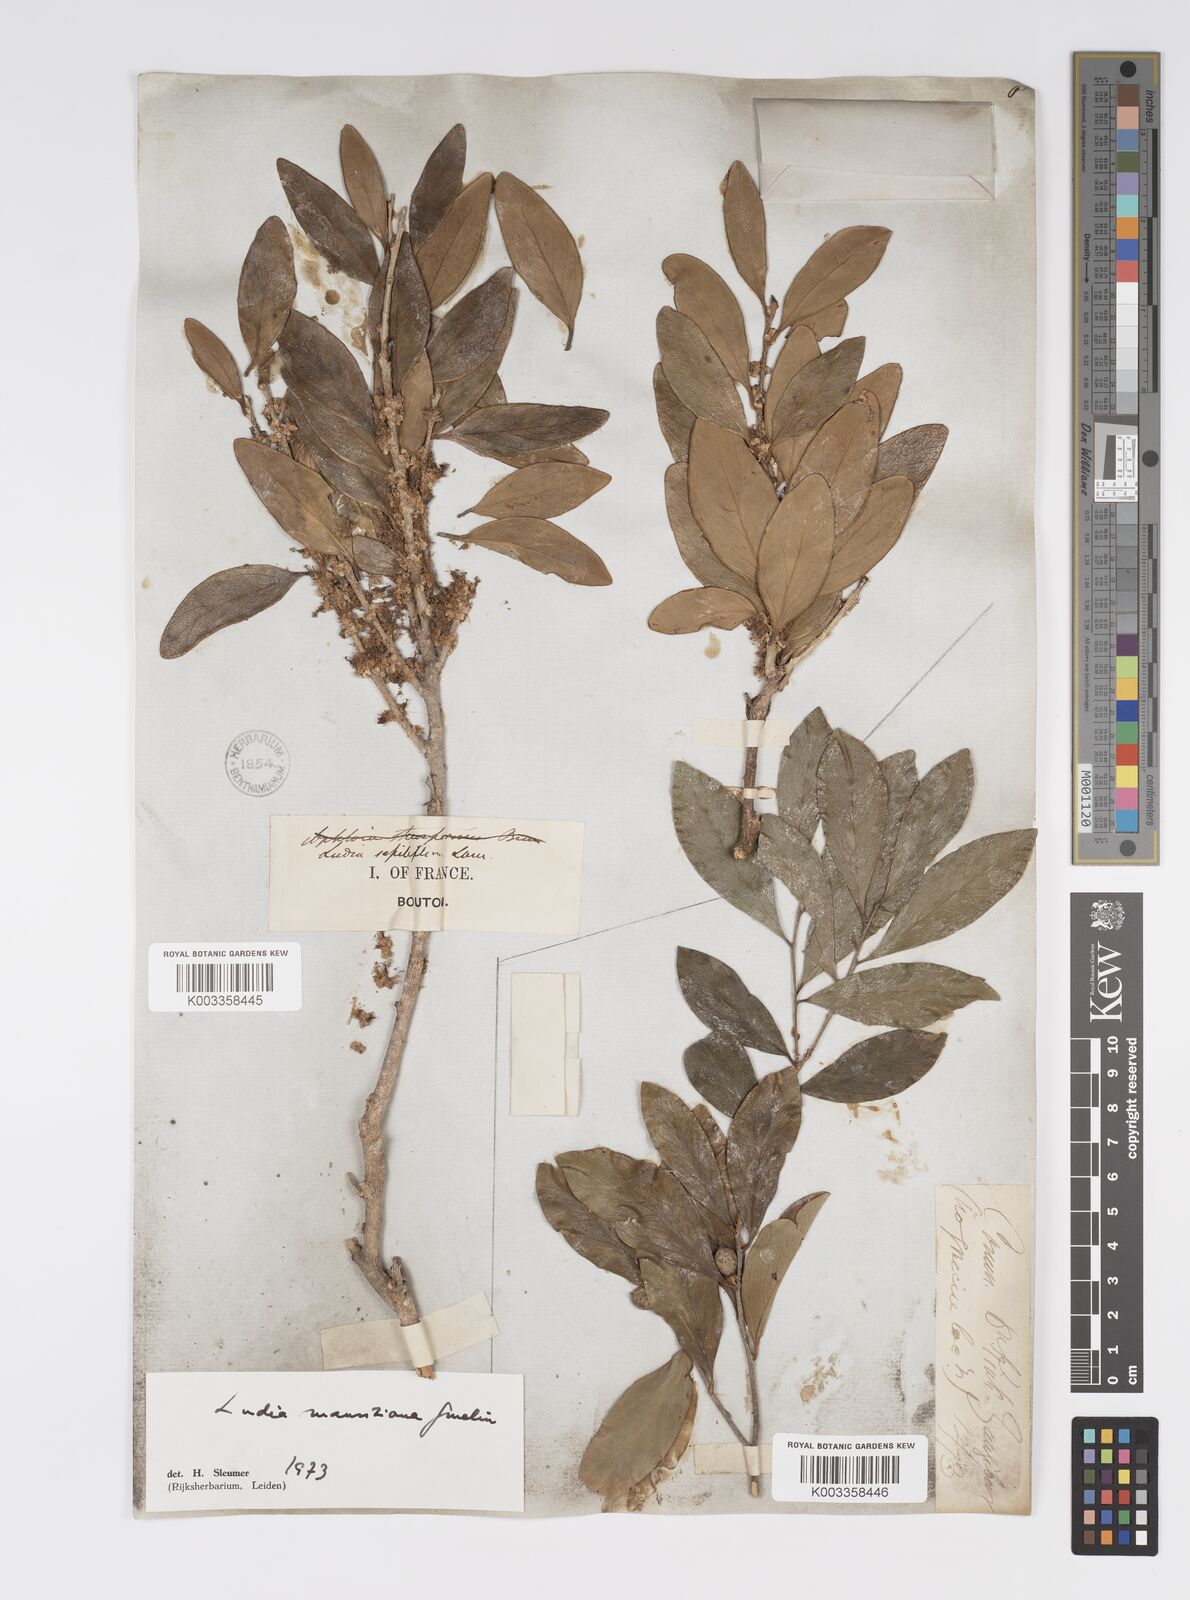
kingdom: Plantae
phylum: Tracheophyta
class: Magnoliopsida
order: Malpighiales
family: Salicaceae
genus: Ludia
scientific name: Ludia mauritiana
